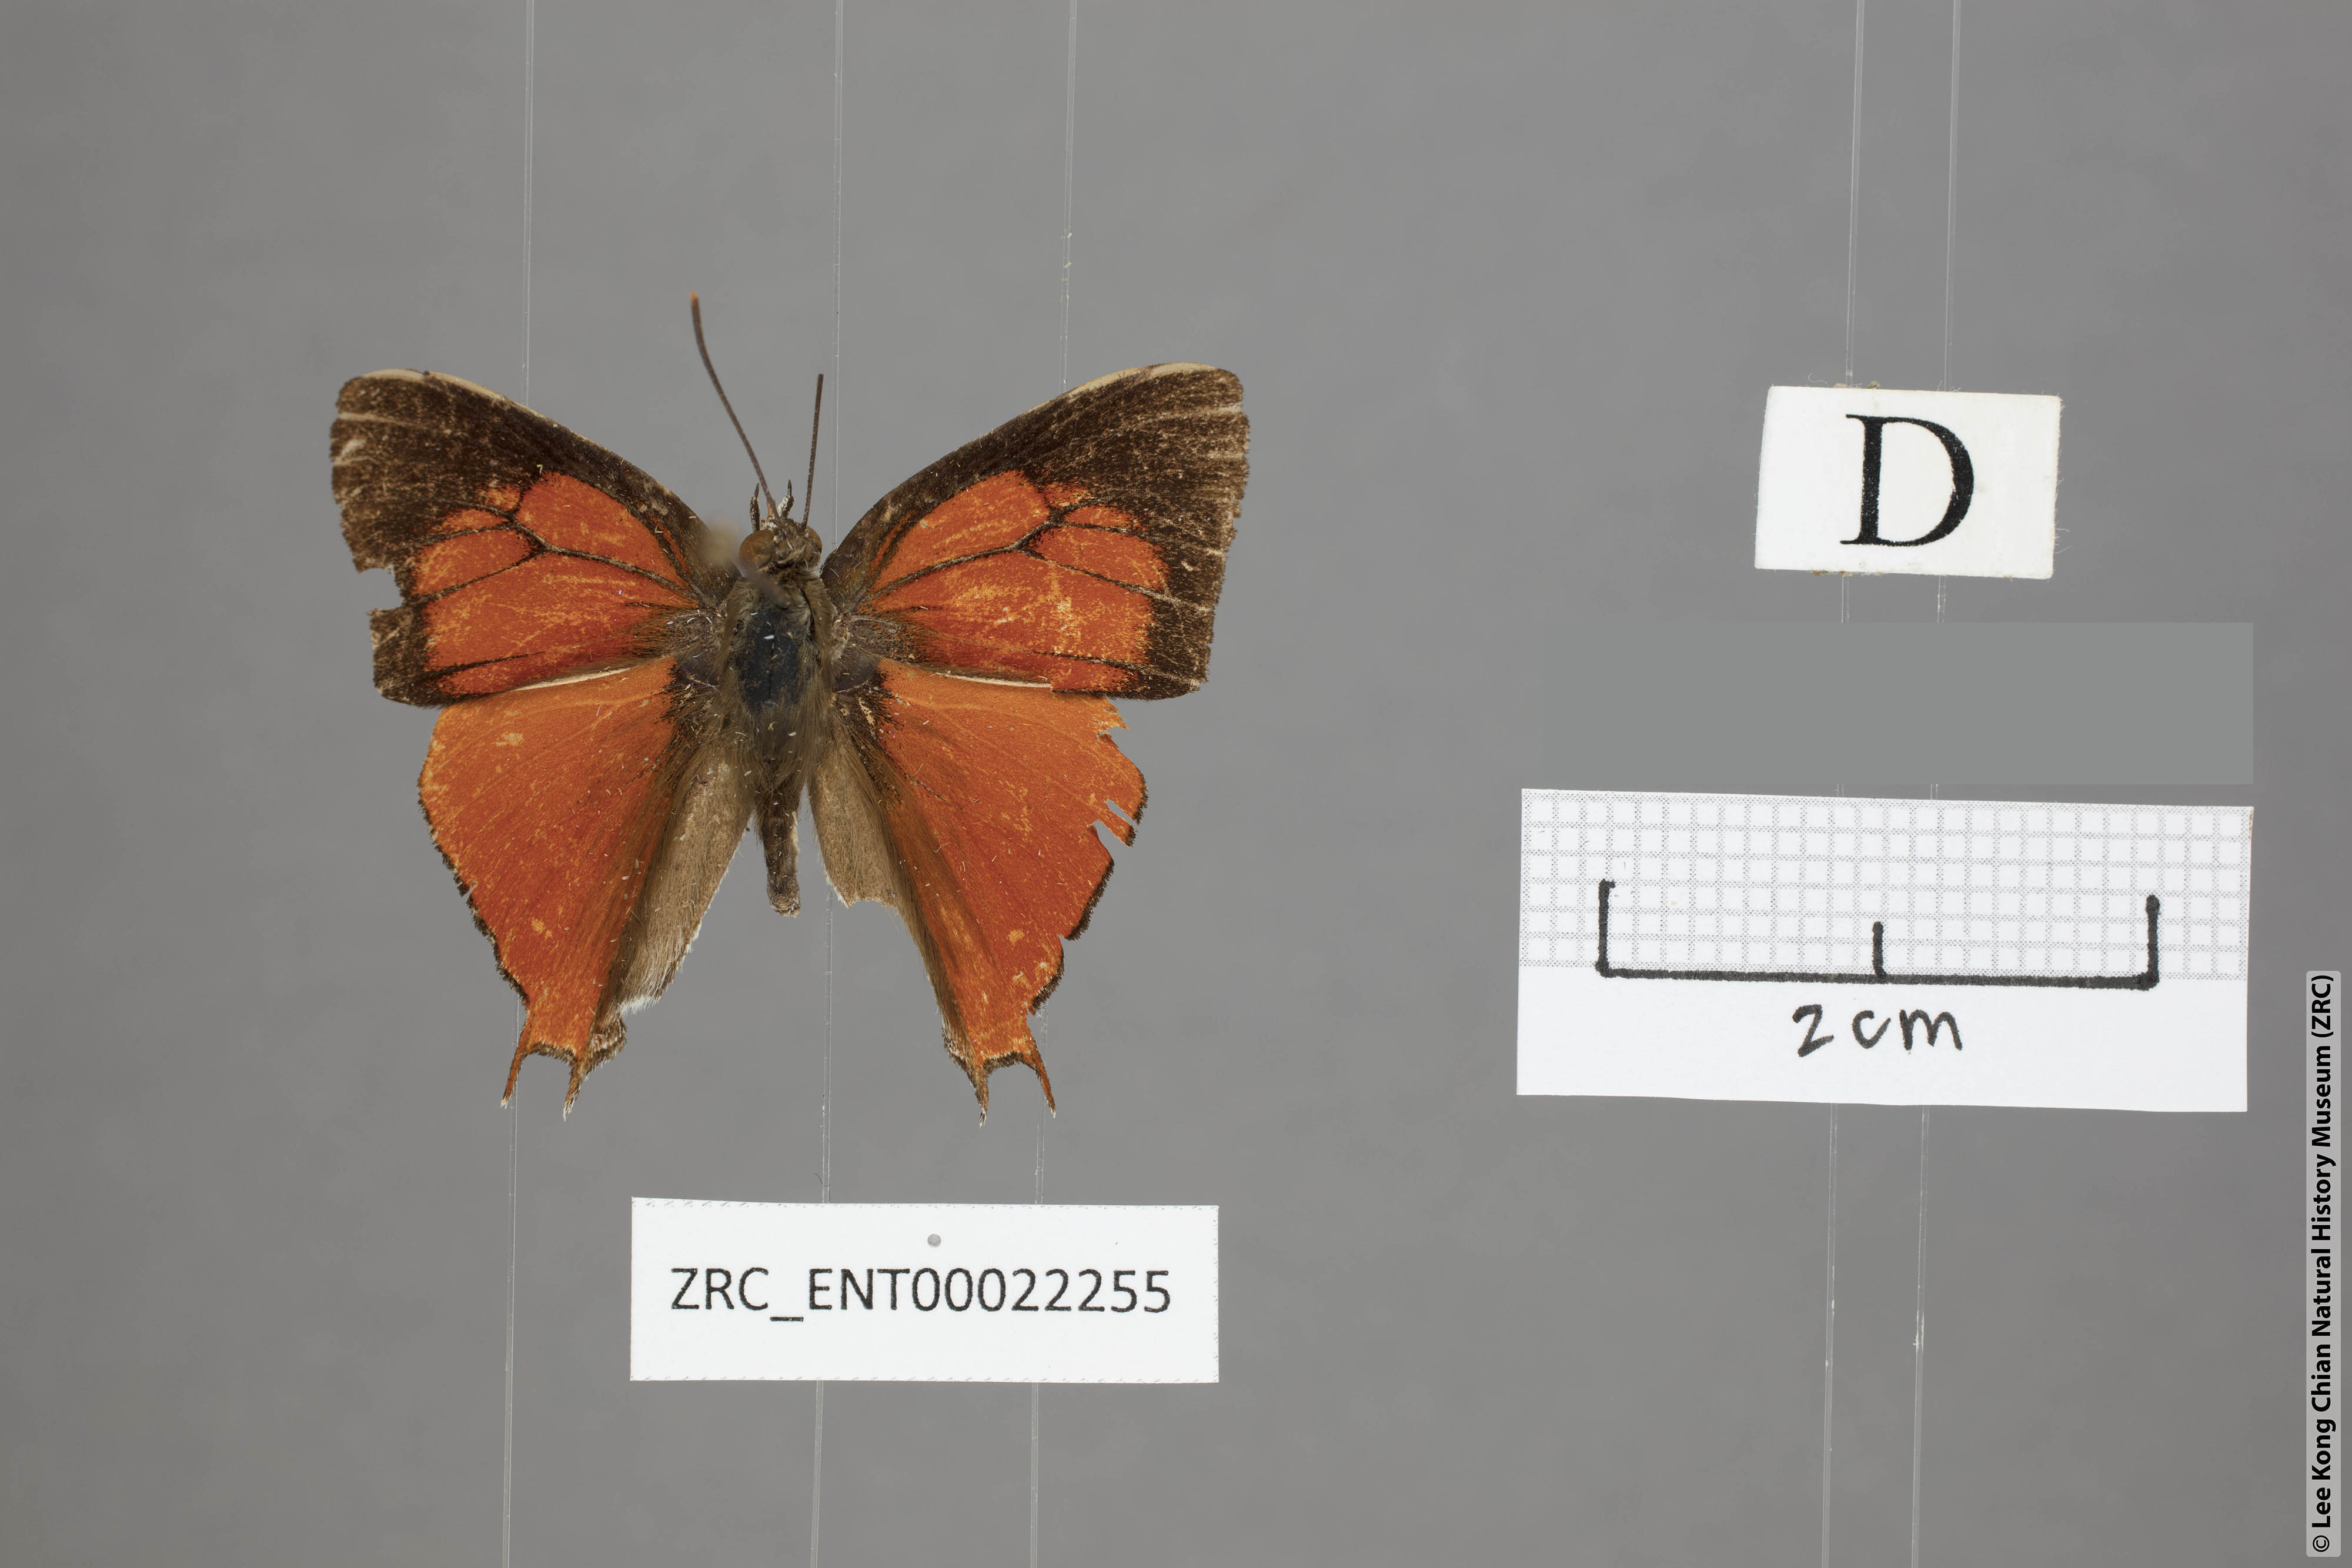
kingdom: Animalia
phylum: Arthropoda
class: Insecta
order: Lepidoptera
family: Lycaenidae
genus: Thamala
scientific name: Thamala marciana
